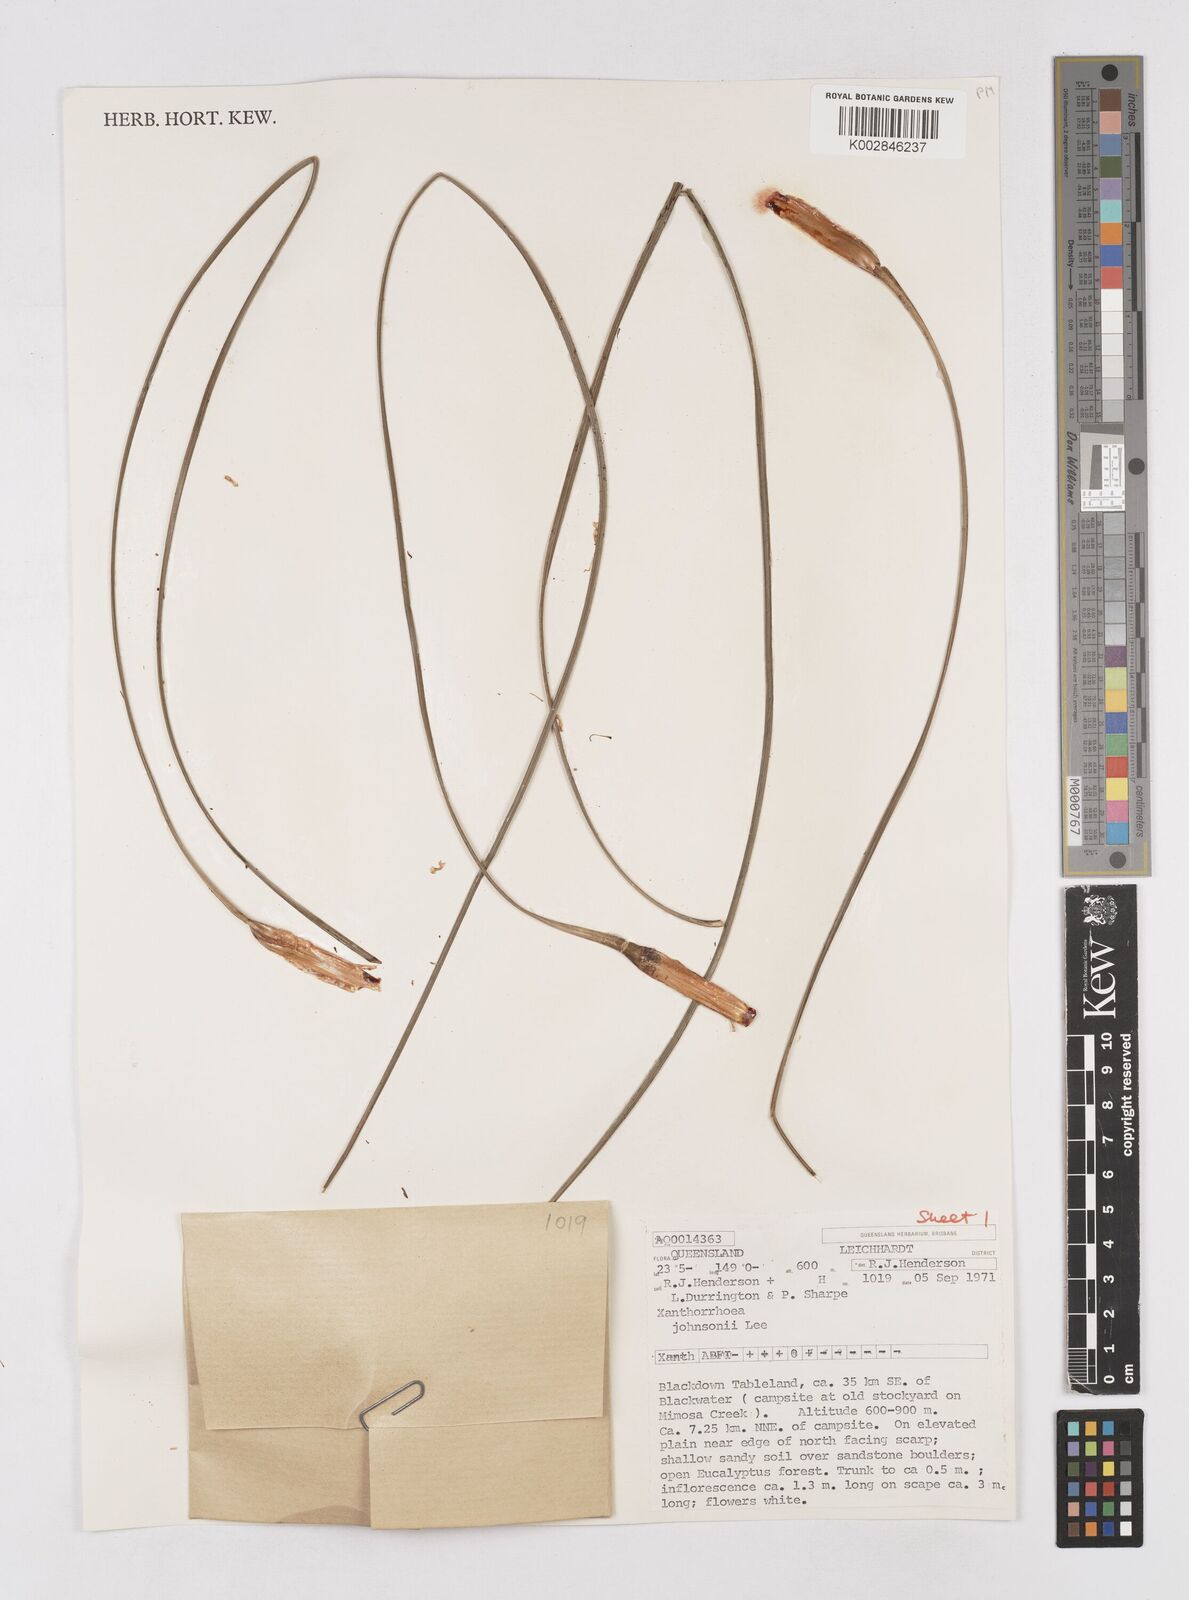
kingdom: Plantae
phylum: Tracheophyta
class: Liliopsida
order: Asparagales
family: Asphodelaceae
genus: Xanthorrhoea
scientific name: Xanthorrhoea johnsonii
